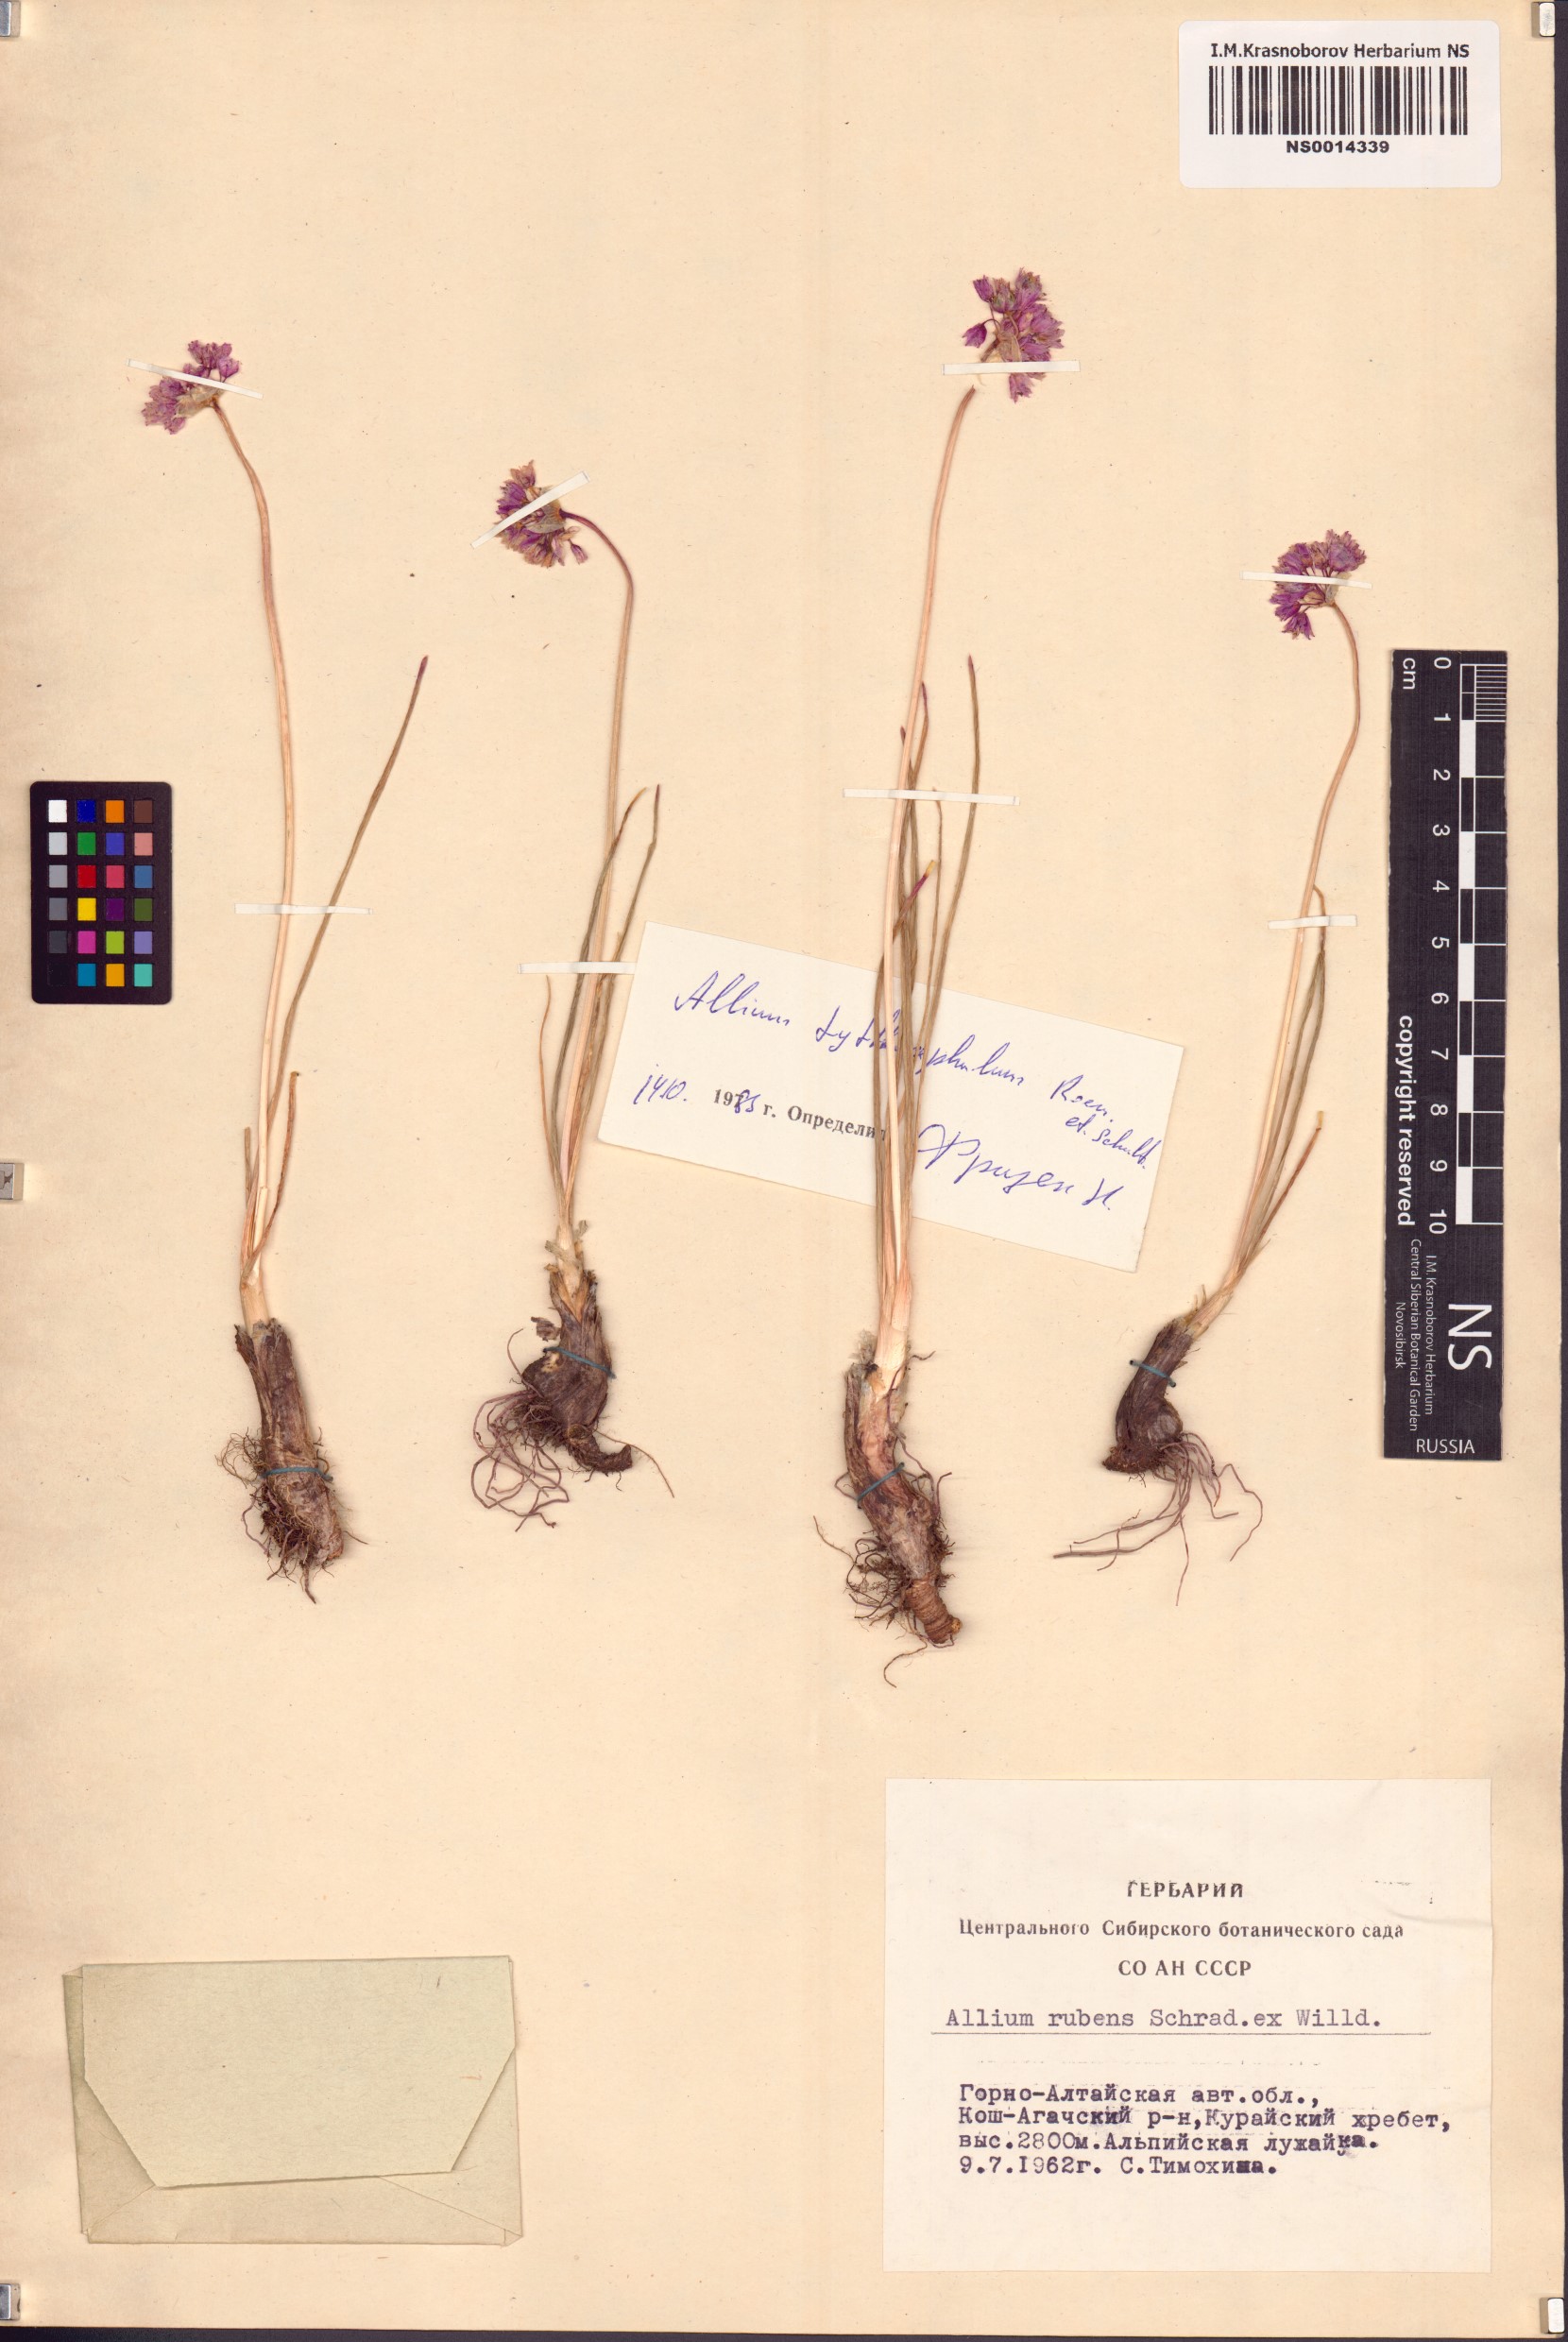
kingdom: Plantae
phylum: Tracheophyta
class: Liliopsida
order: Asparagales
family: Amaryllidaceae
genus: Allium
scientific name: Allium tytthocephalum
